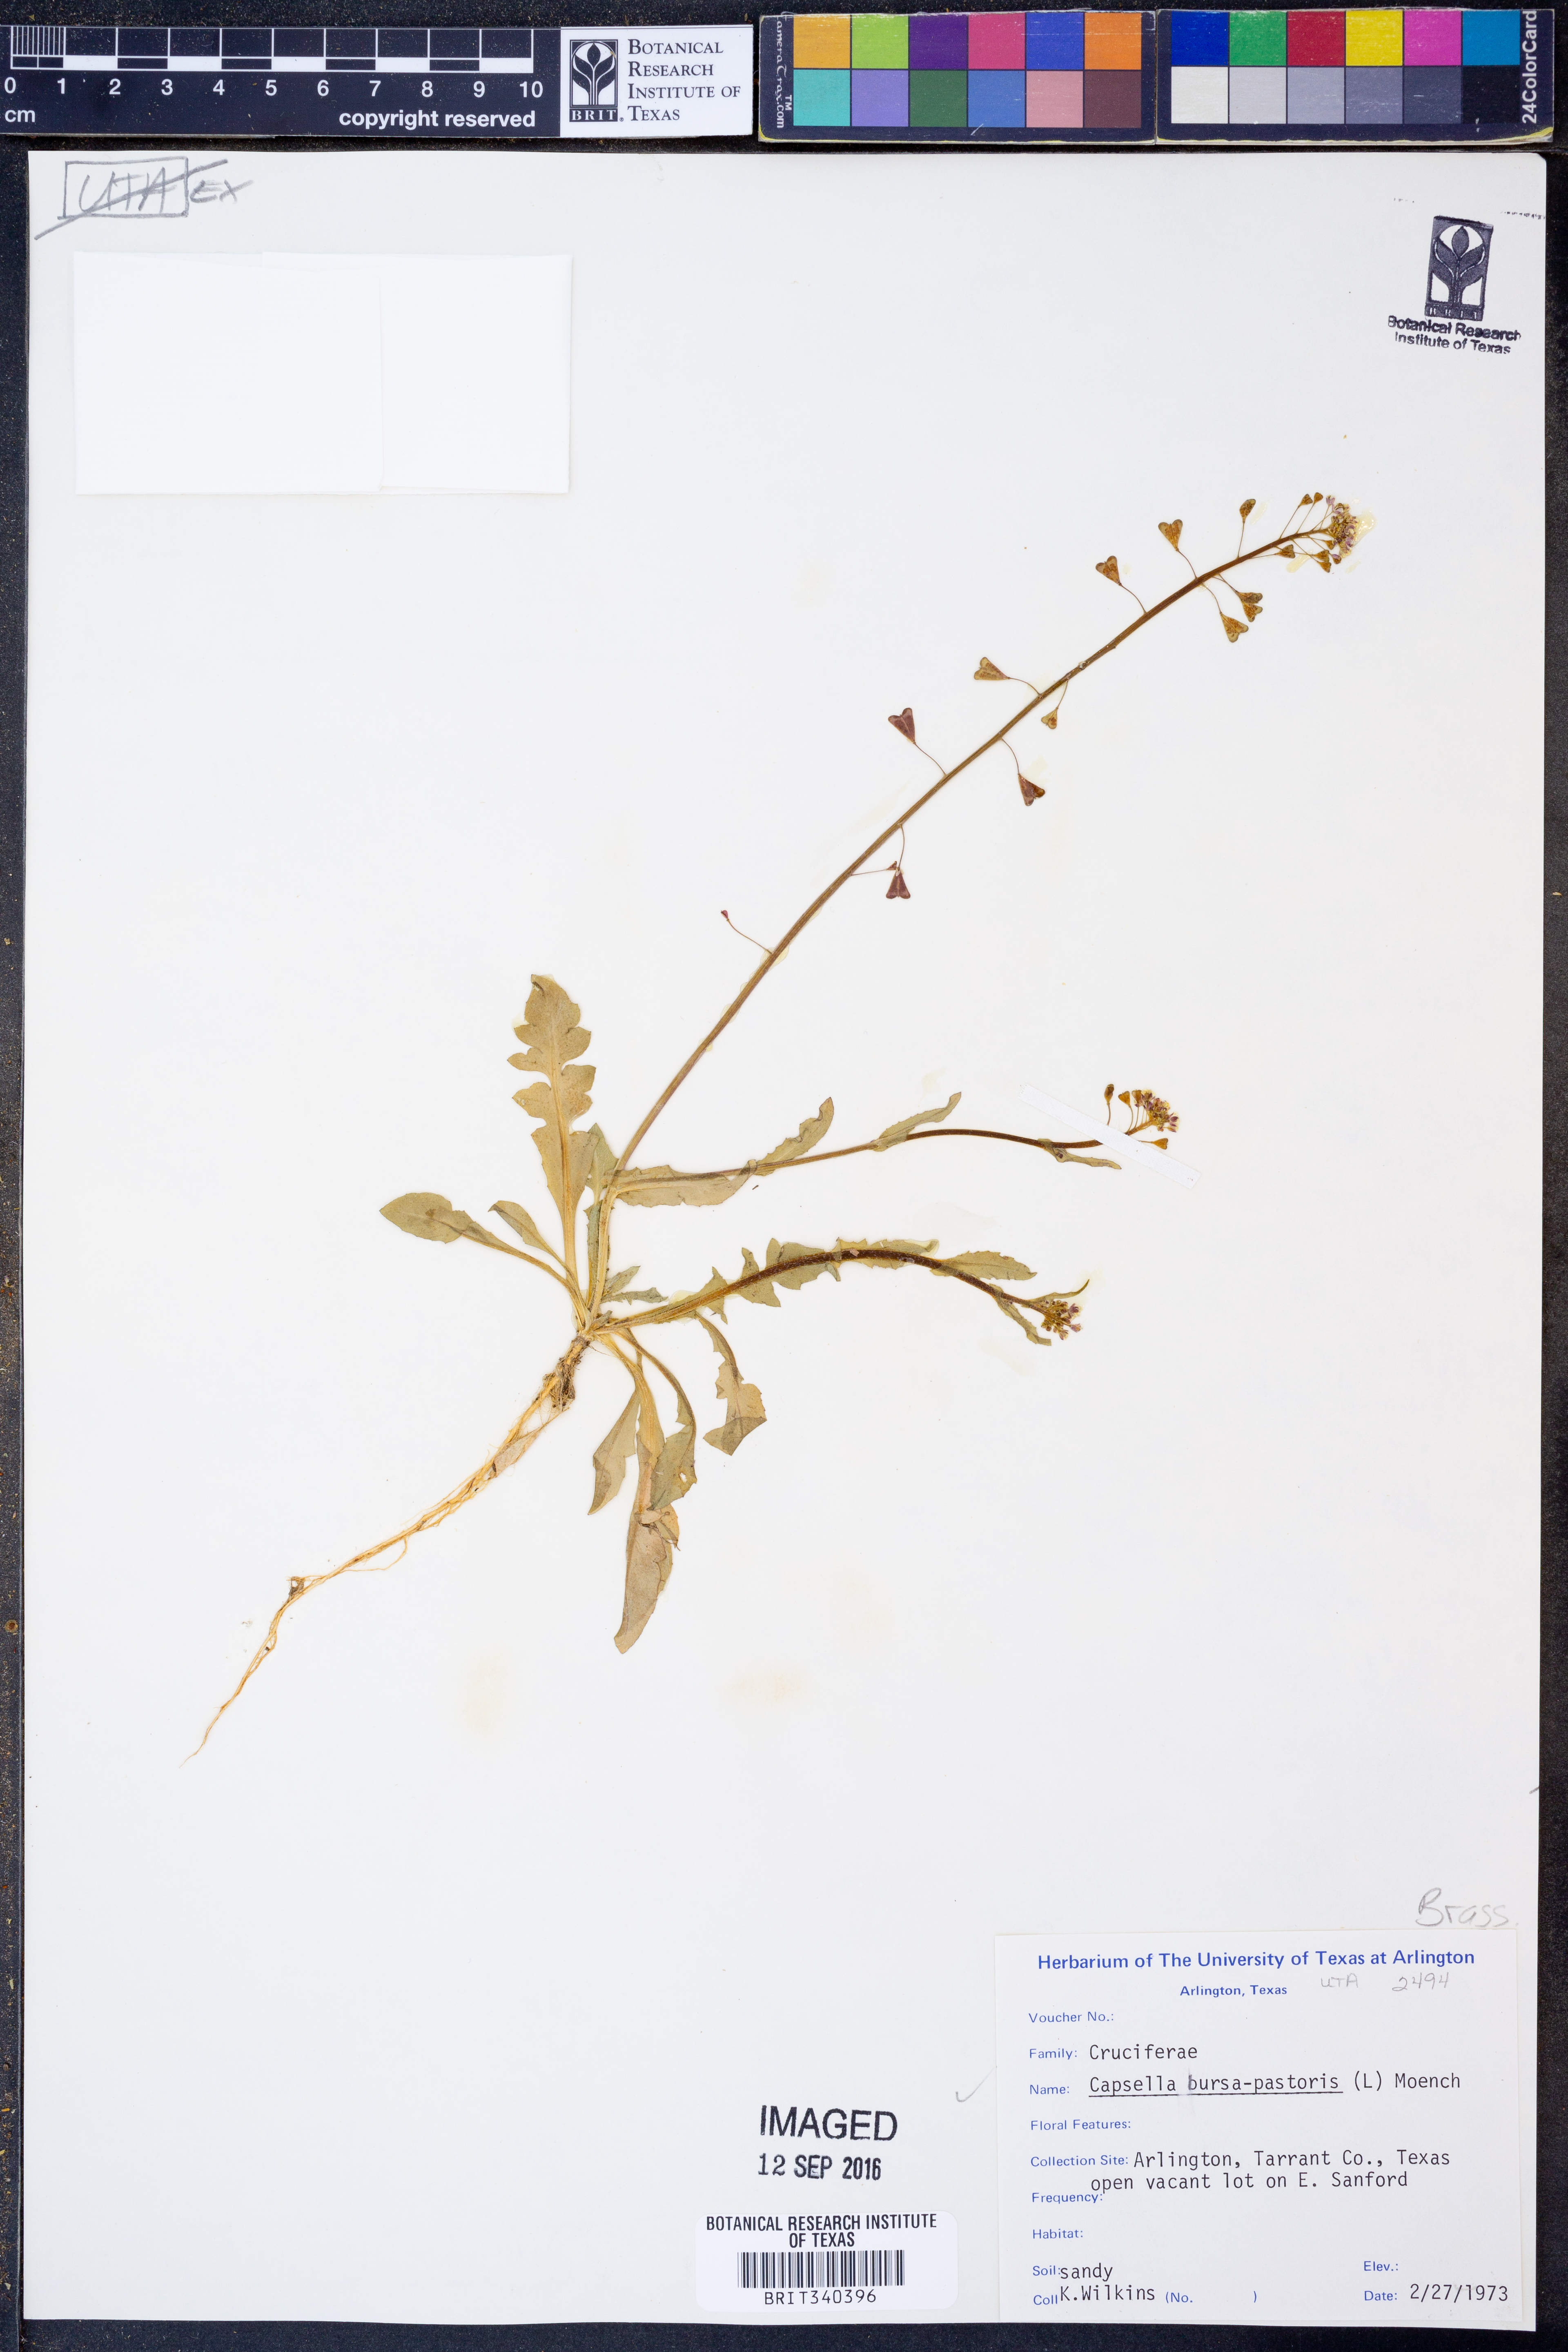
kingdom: Plantae
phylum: Tracheophyta
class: Magnoliopsida
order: Brassicales
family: Brassicaceae
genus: Capsella
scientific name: Capsella bursa-pastoris
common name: Shepherd's purse
